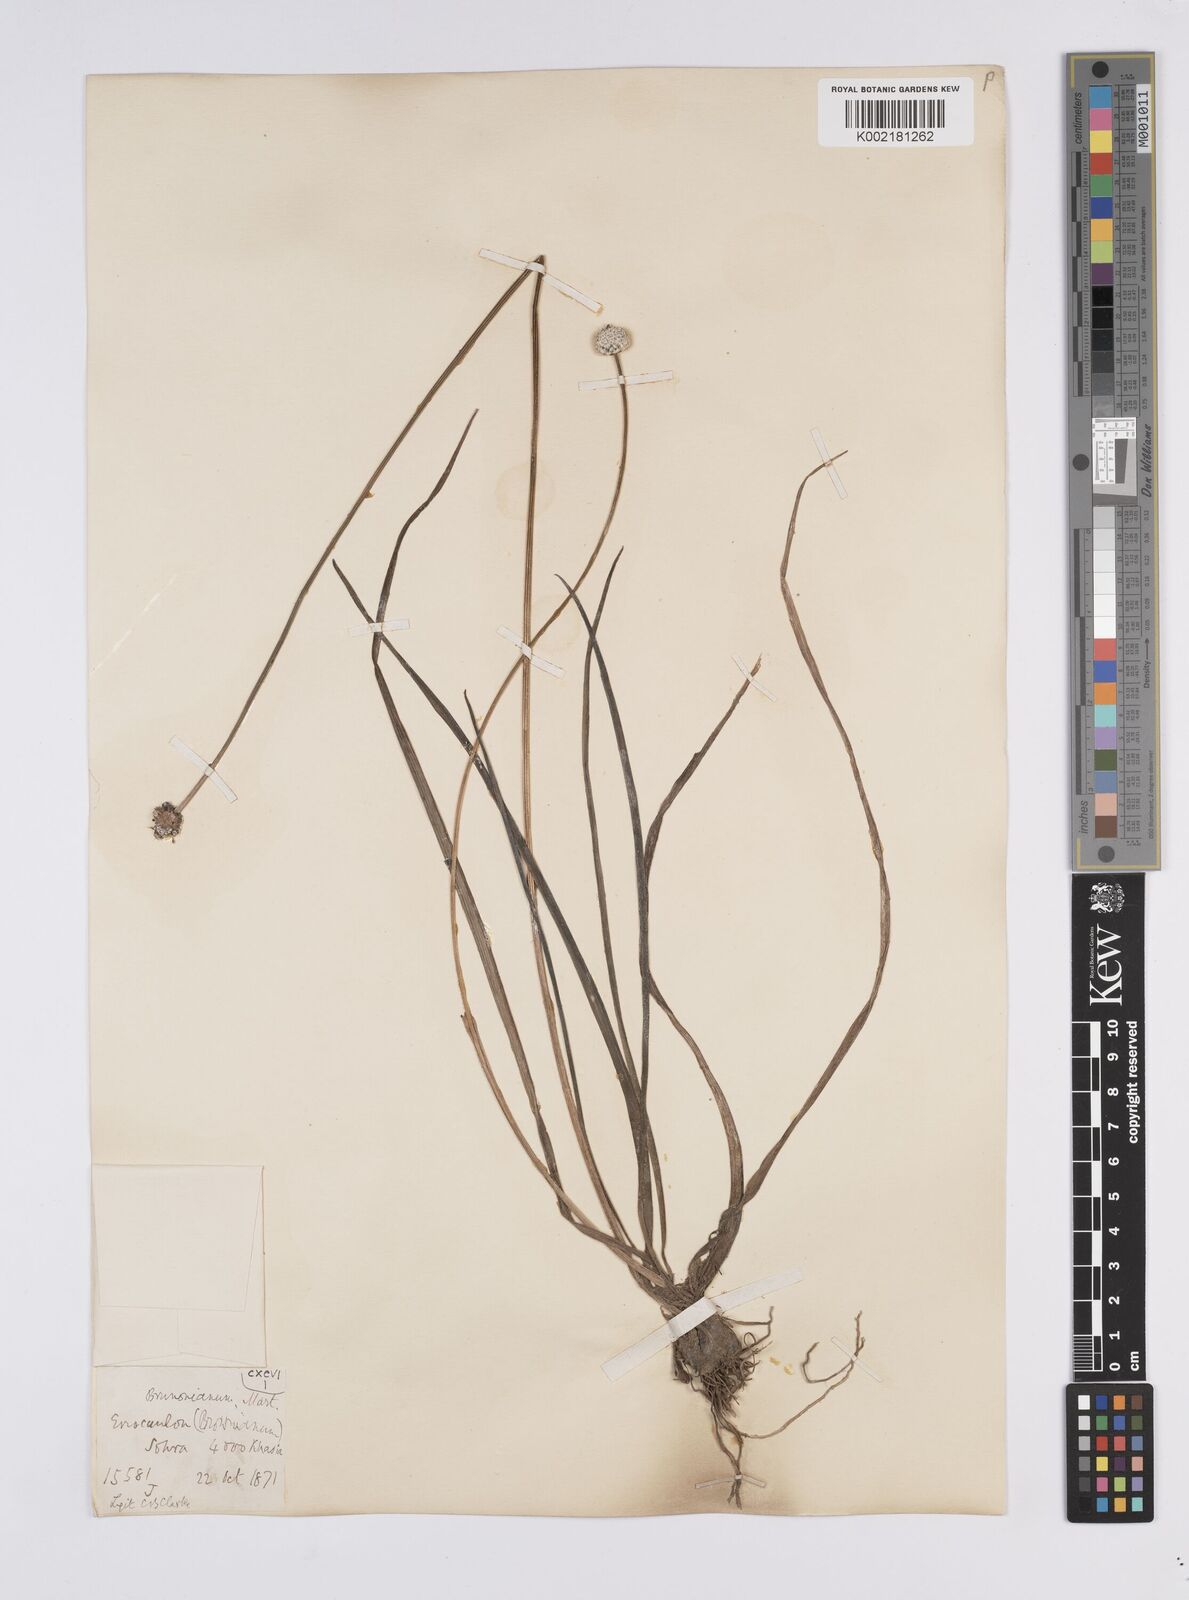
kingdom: Plantae
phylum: Tracheophyta
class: Liliopsida
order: Poales
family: Eriocaulaceae
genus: Eriocaulon
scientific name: Eriocaulon brownianum
